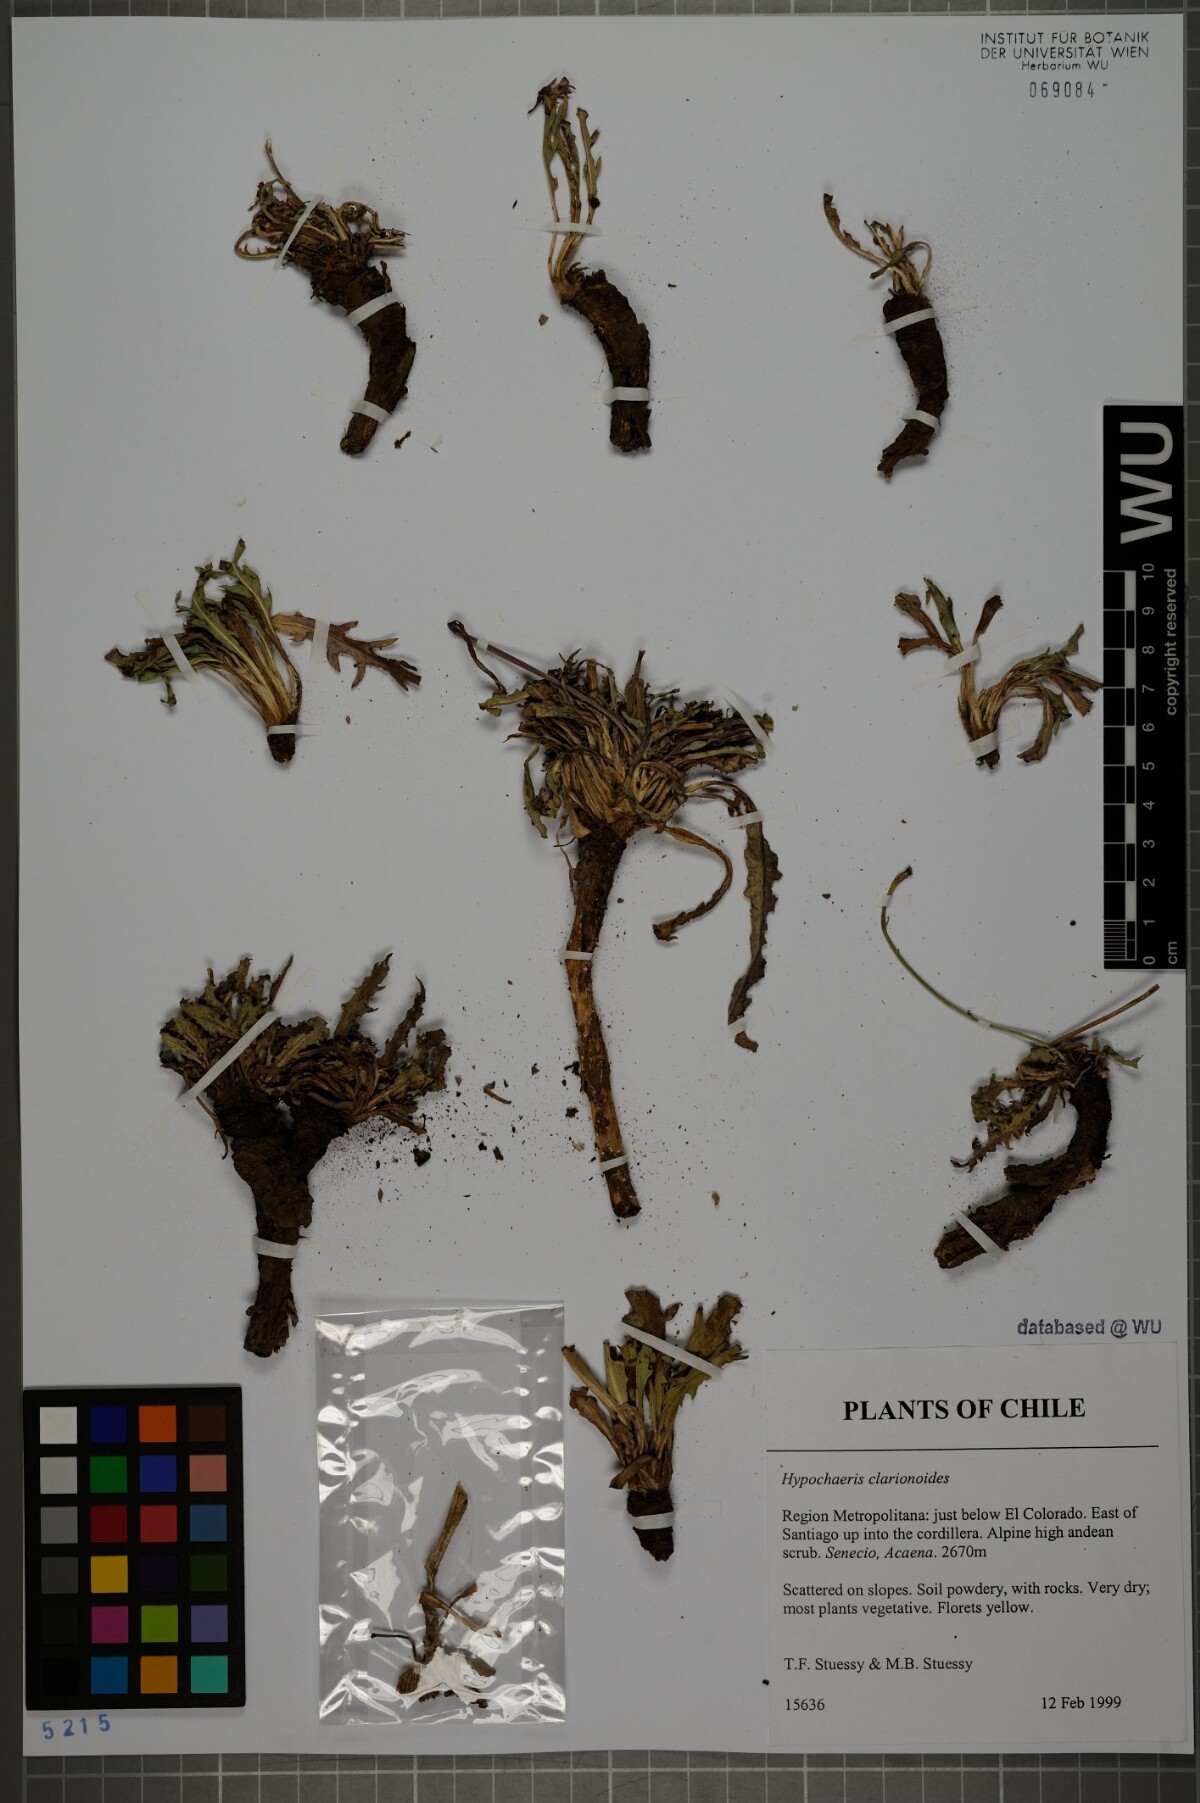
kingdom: Plantae
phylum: Tracheophyta
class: Magnoliopsida
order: Asterales
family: Asteraceae
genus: Hypochaeris
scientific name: Hypochaeris clarionoides
